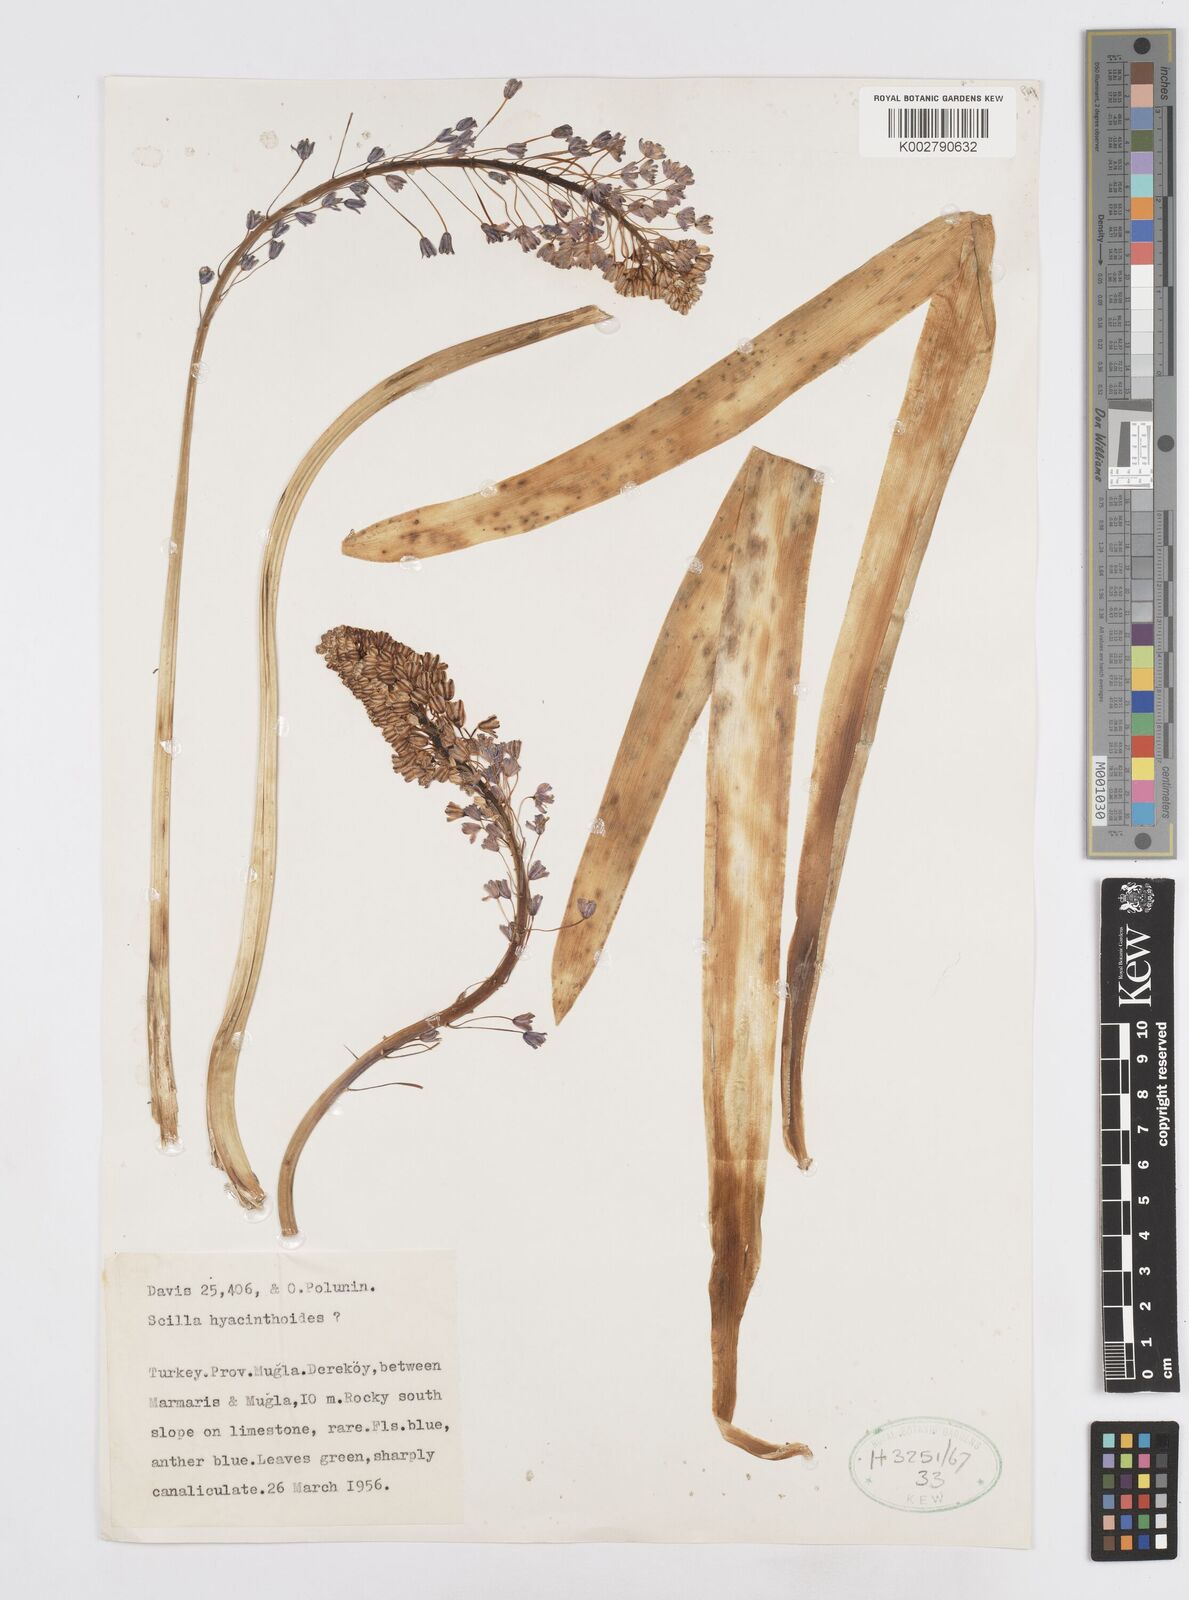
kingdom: Plantae
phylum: Tracheophyta
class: Liliopsida
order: Asparagales
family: Asparagaceae
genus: Scilla
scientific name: Scilla hyacinthoides
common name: Scilla
